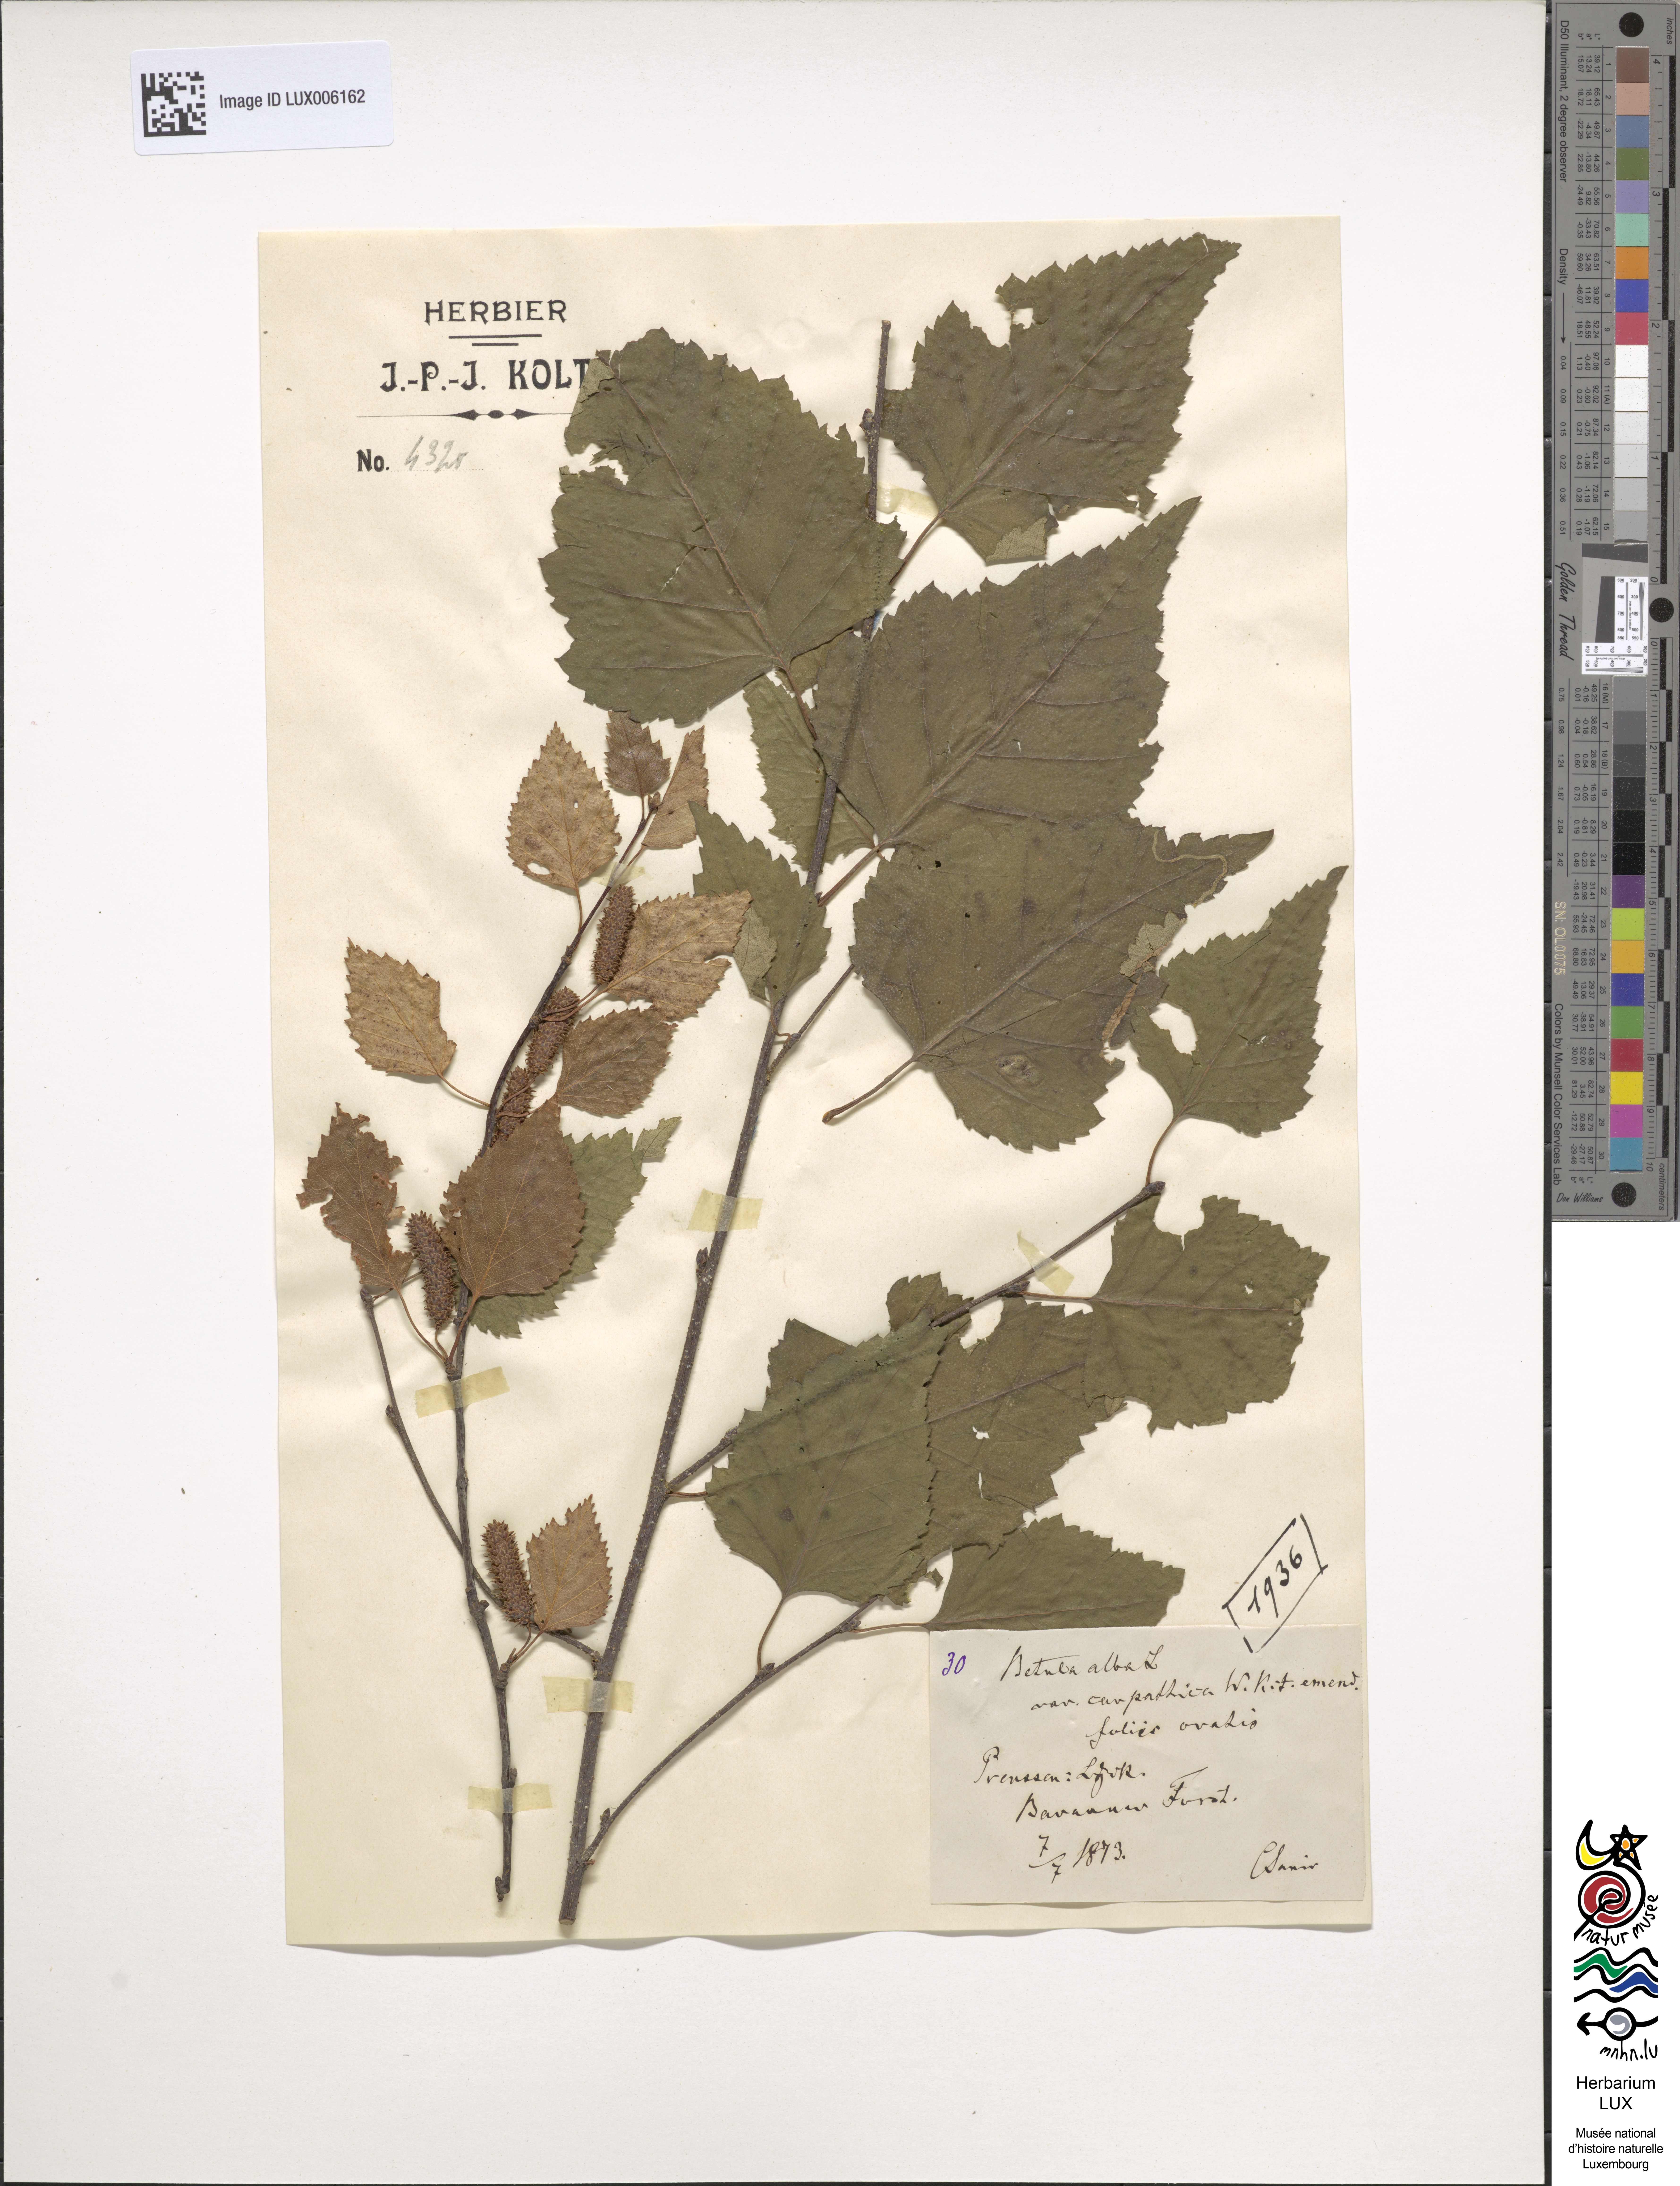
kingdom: Plantae
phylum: Tracheophyta
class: Magnoliopsida
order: Fagales
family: Betulaceae
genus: Betula
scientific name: Betula pubescens
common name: Downy birch
